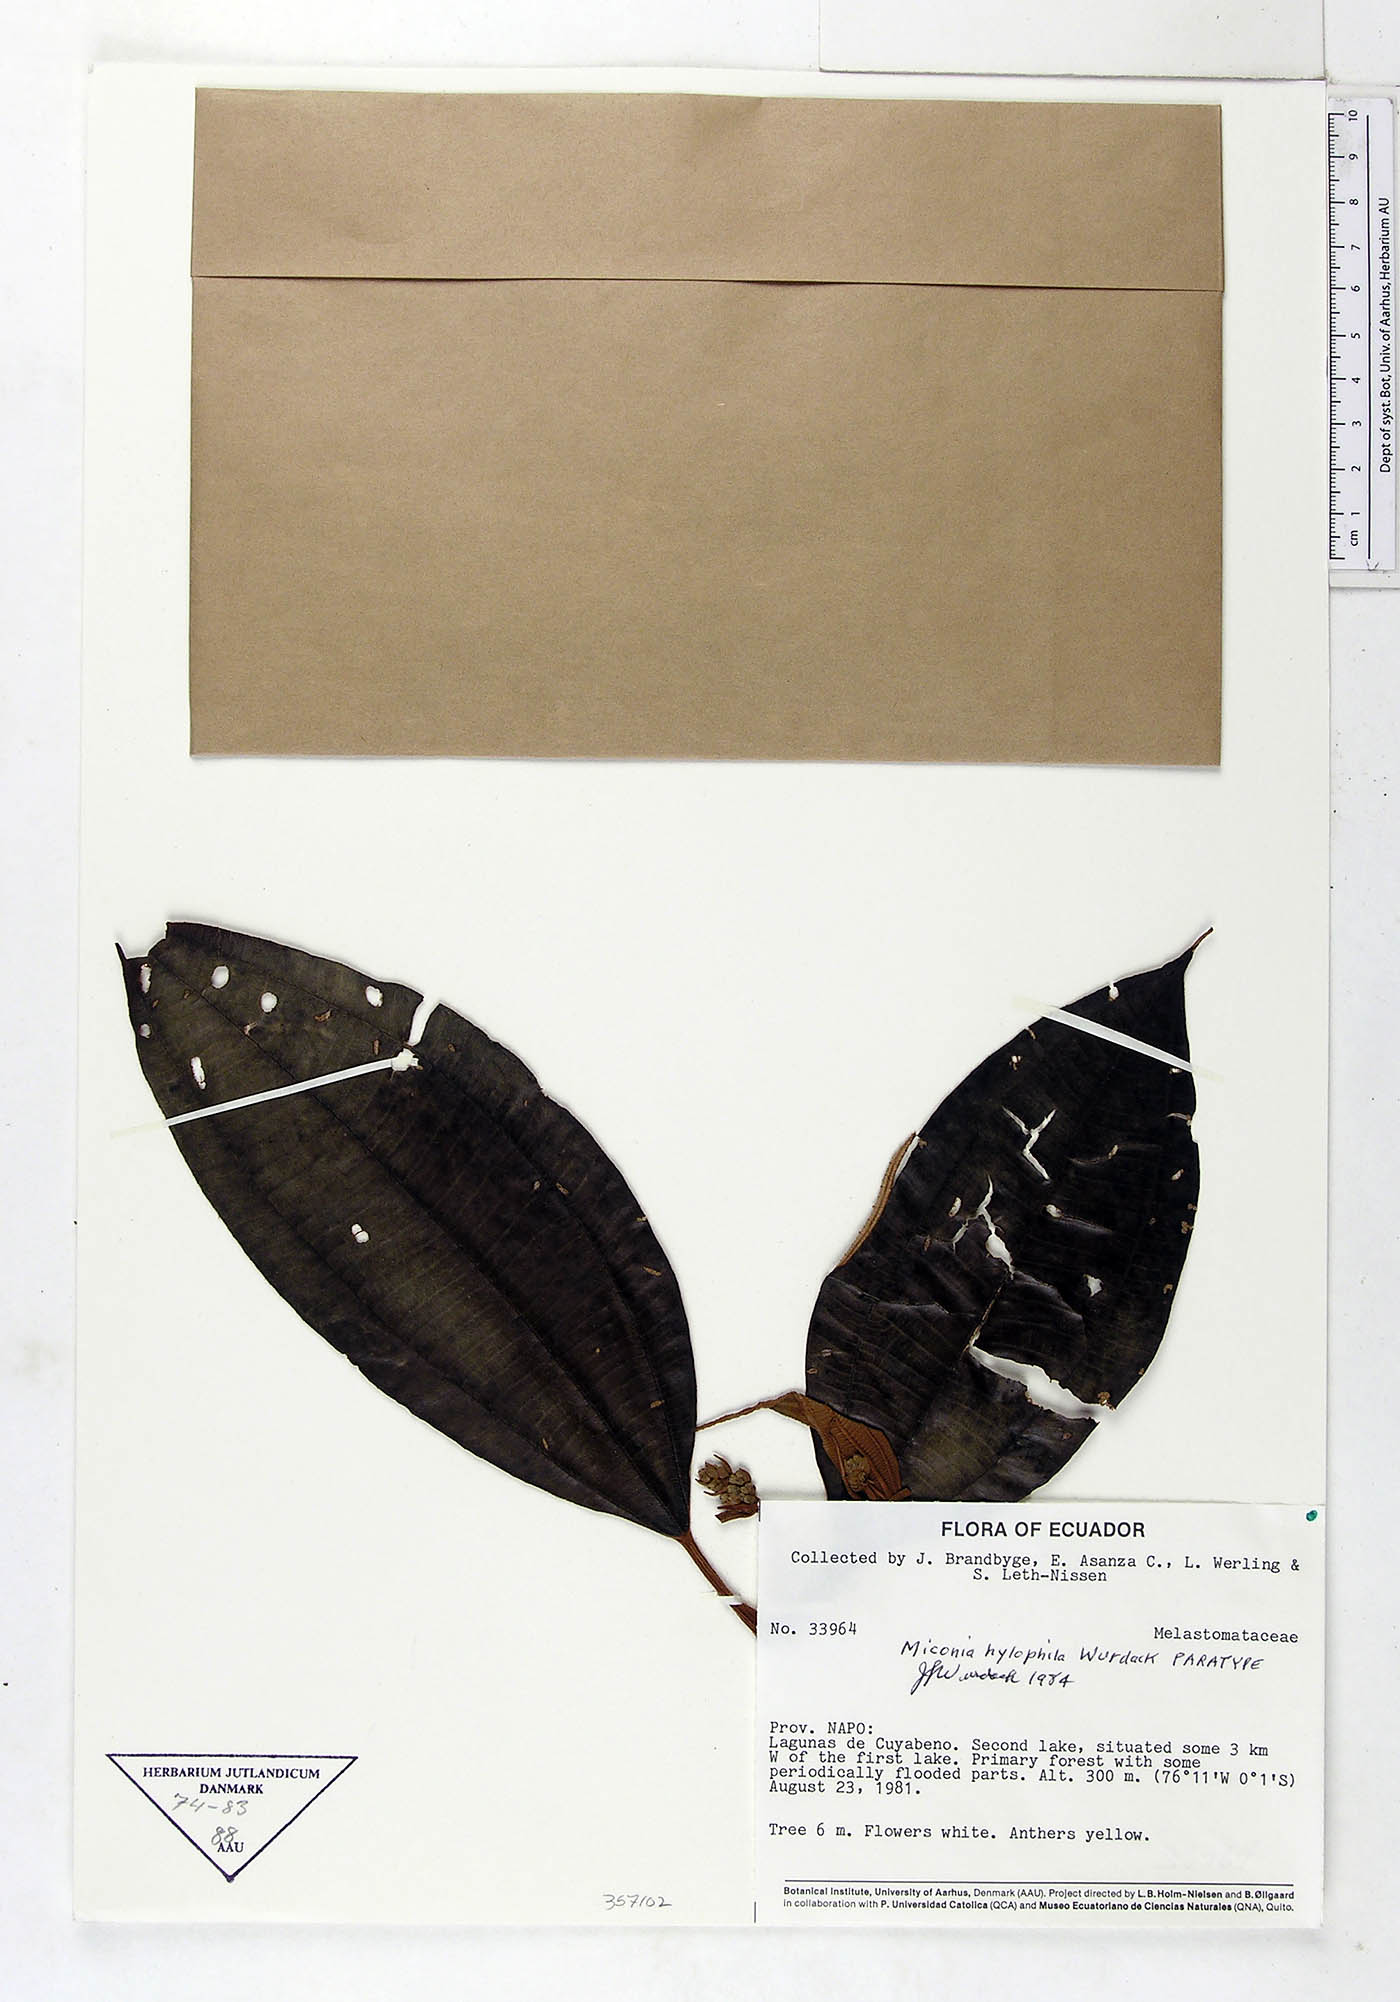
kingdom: Plantae
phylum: Tracheophyta
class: Magnoliopsida
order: Myrtales
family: Melastomataceae
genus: Miconia
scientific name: Miconia hylophila
